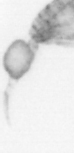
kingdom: Animalia
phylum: Arthropoda
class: Copepoda
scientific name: Copepoda
